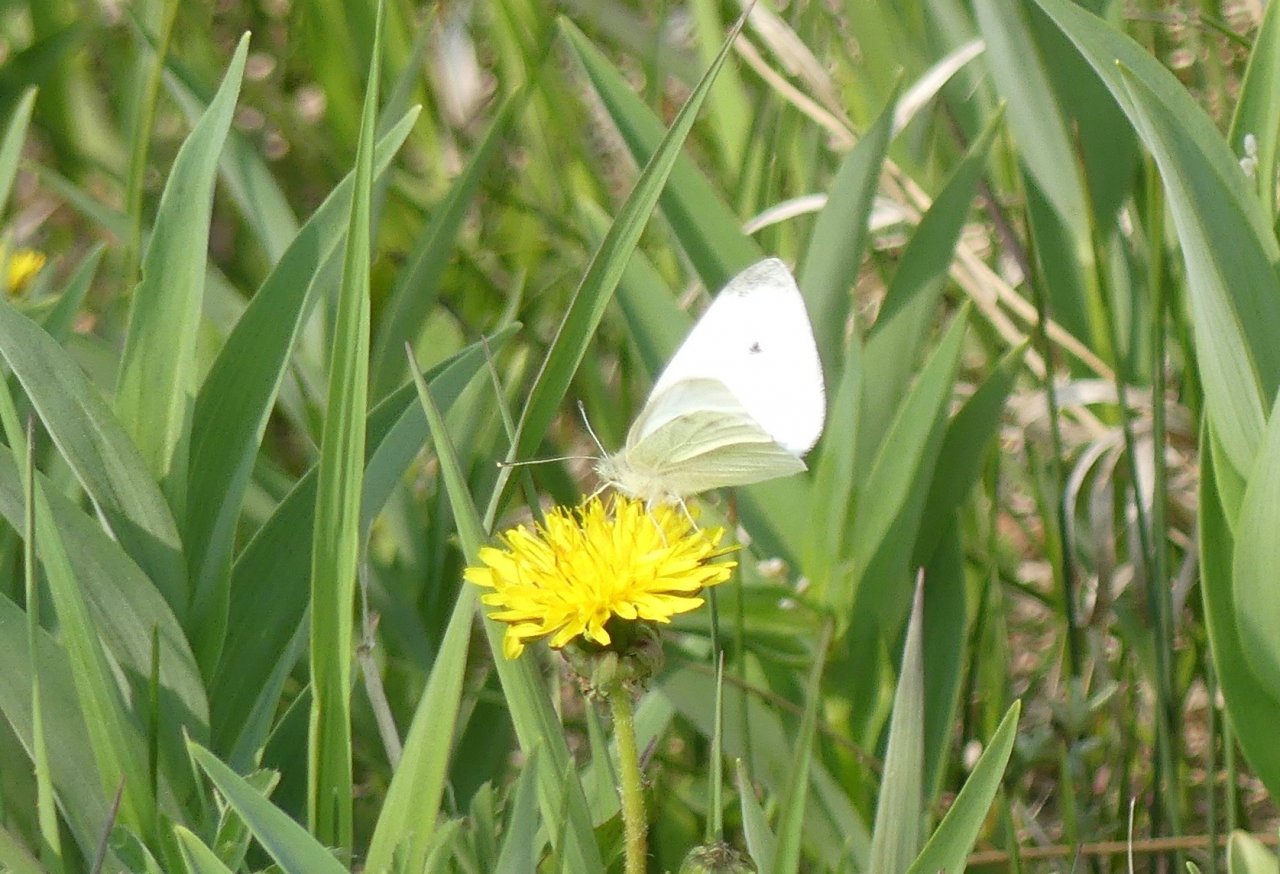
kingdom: Animalia
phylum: Arthropoda
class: Insecta
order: Lepidoptera
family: Pieridae
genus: Pieris
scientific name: Pieris rapae
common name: Cabbage White
